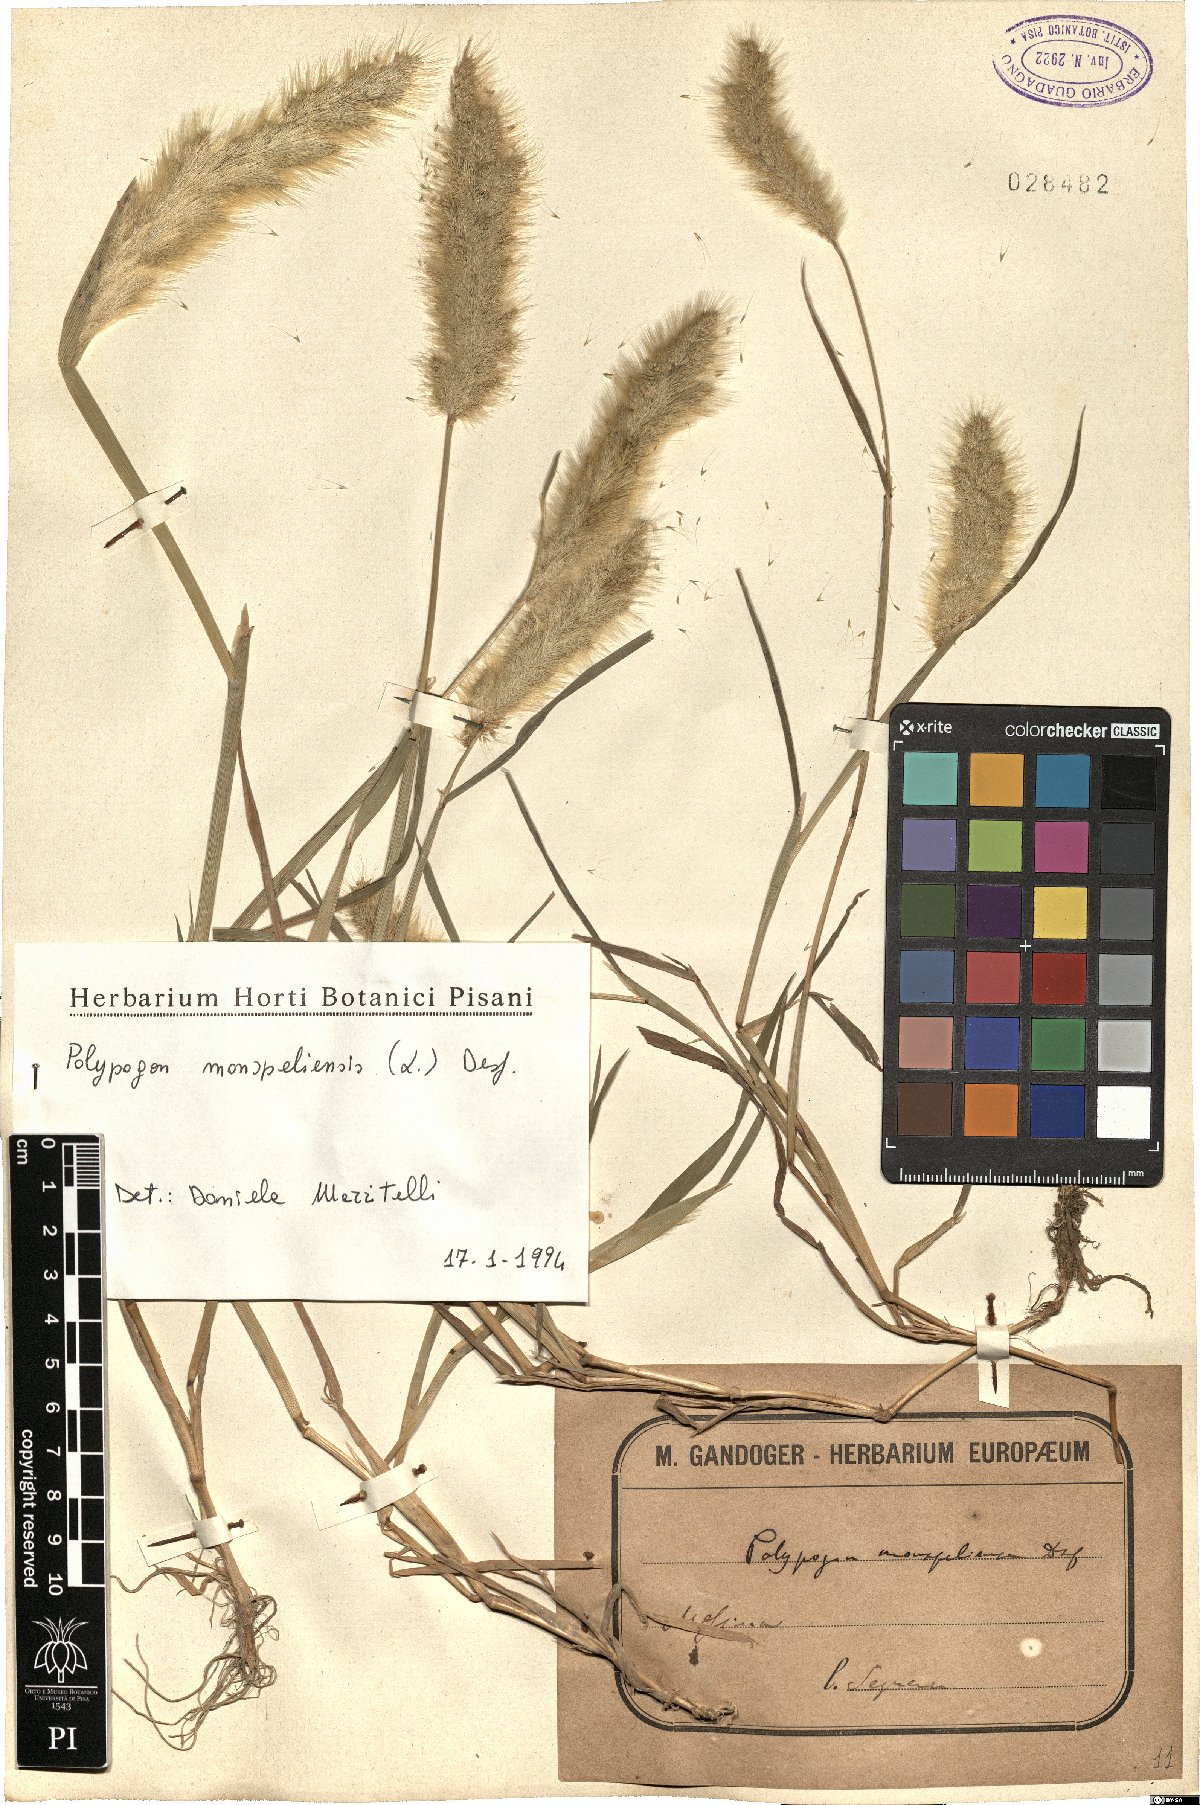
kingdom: Plantae
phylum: Tracheophyta
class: Liliopsida
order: Poales
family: Poaceae
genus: Polypogon
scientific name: Polypogon monspeliensis
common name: Annual rabbitsfoot grass
